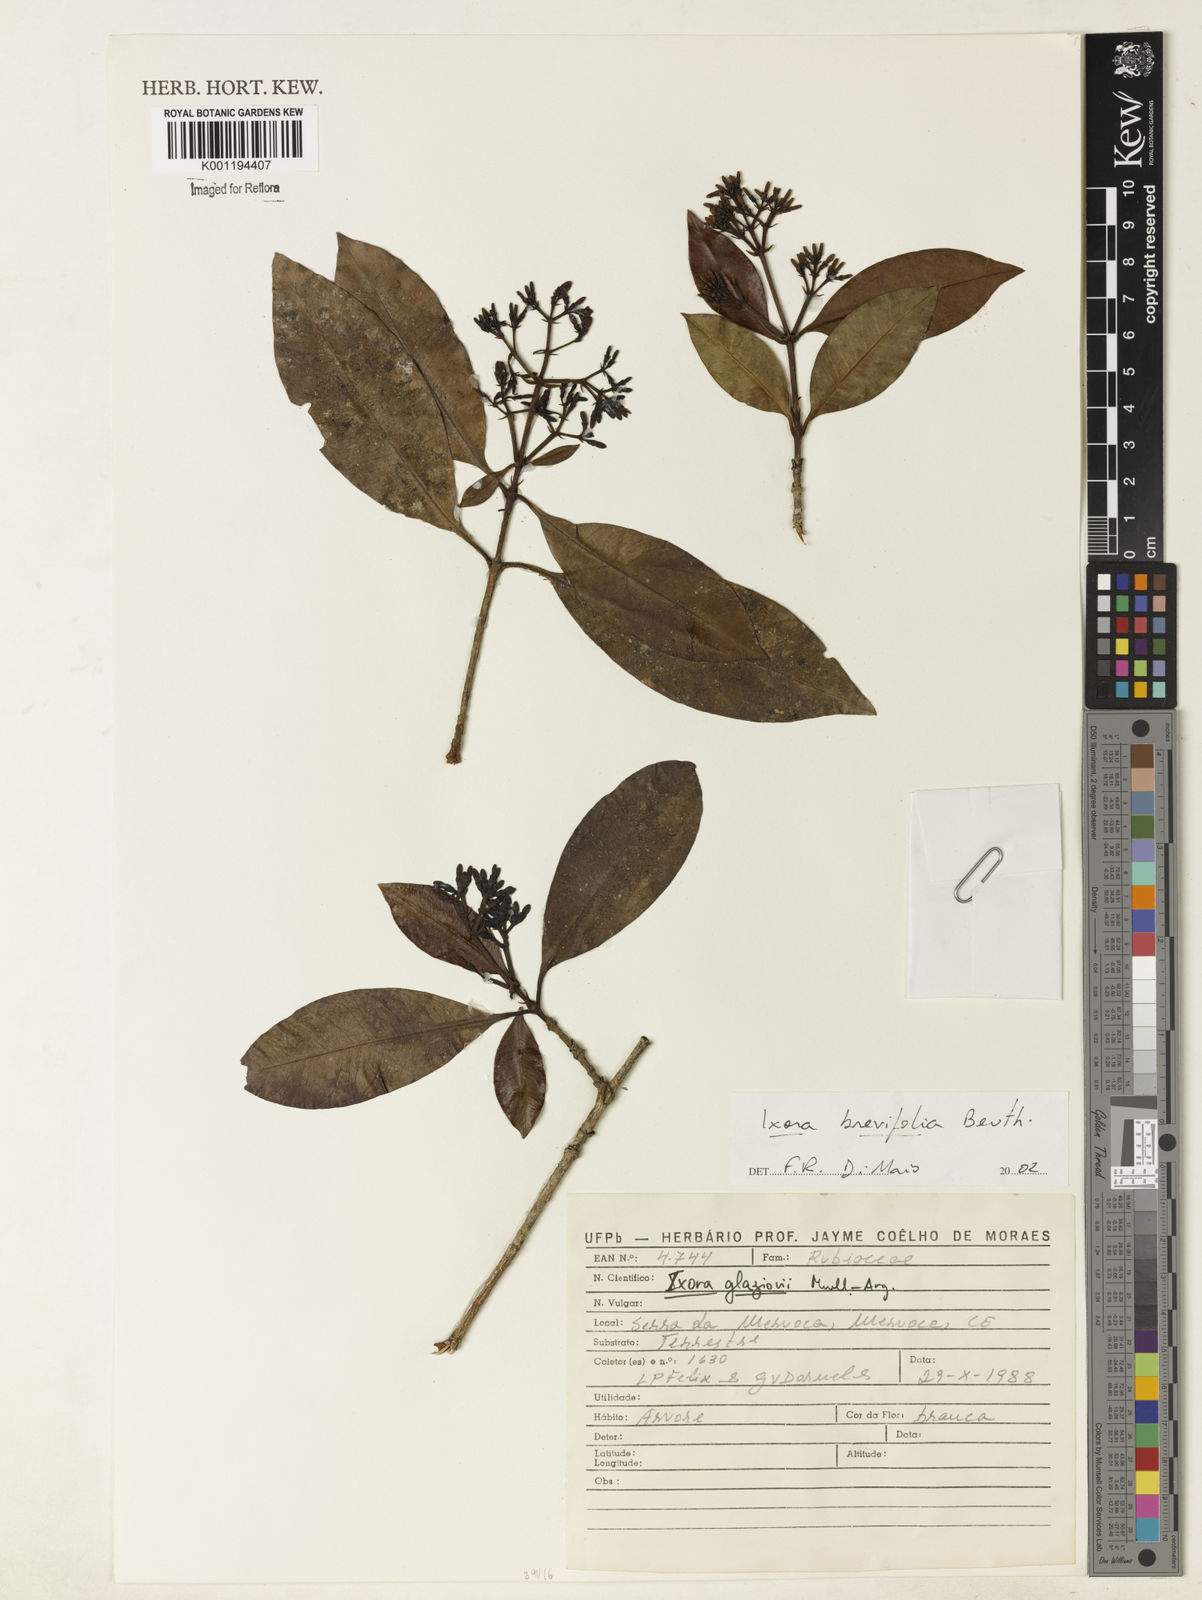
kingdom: Plantae
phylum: Tracheophyta
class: Magnoliopsida
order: Gentianales
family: Rubiaceae
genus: Ixora
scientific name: Ixora brevifolia
